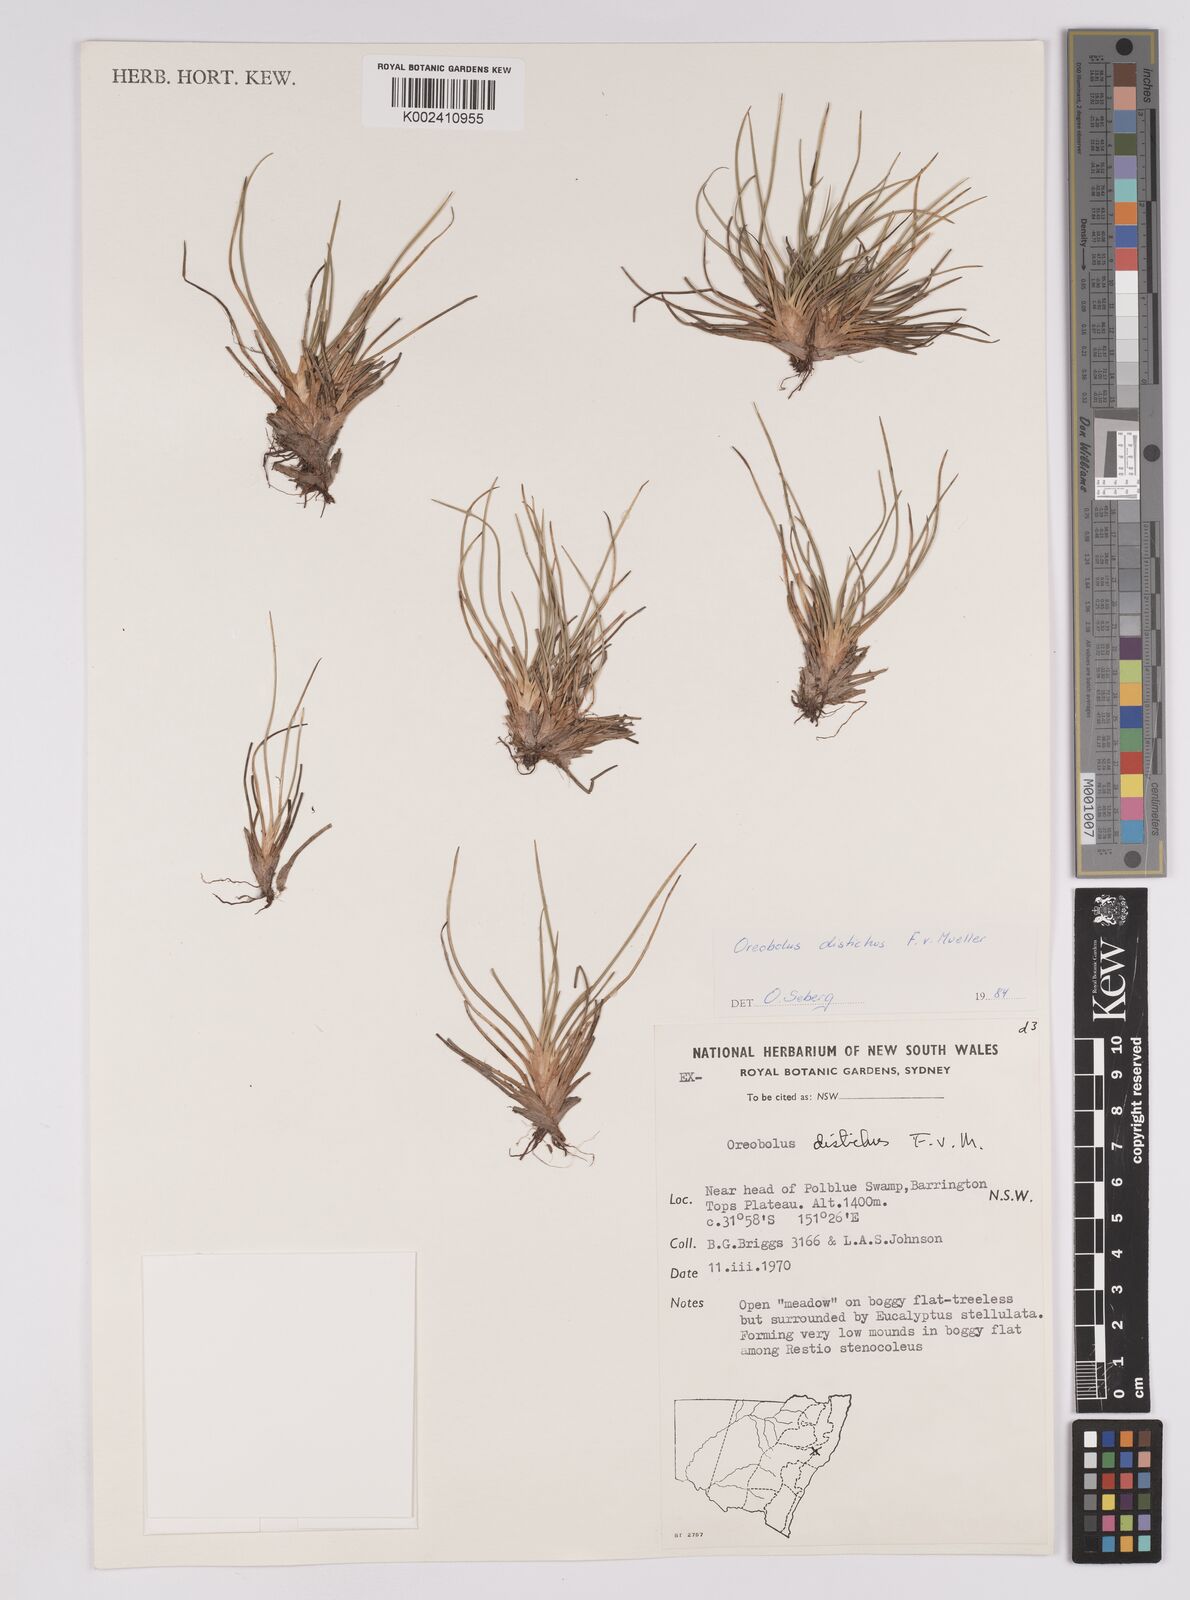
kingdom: Plantae
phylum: Tracheophyta
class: Liliopsida
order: Poales
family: Cyperaceae
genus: Oreobolus
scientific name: Oreobolus distichus
